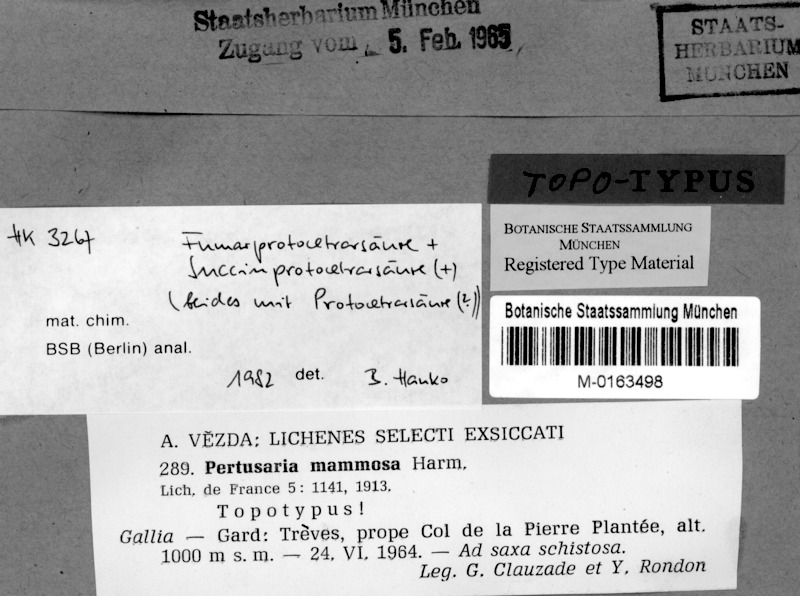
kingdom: Fungi
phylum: Ascomycota
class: Lecanoromycetes
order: Pertusariales
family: Pertusariaceae
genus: Lepra
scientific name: Lepra mammosa
